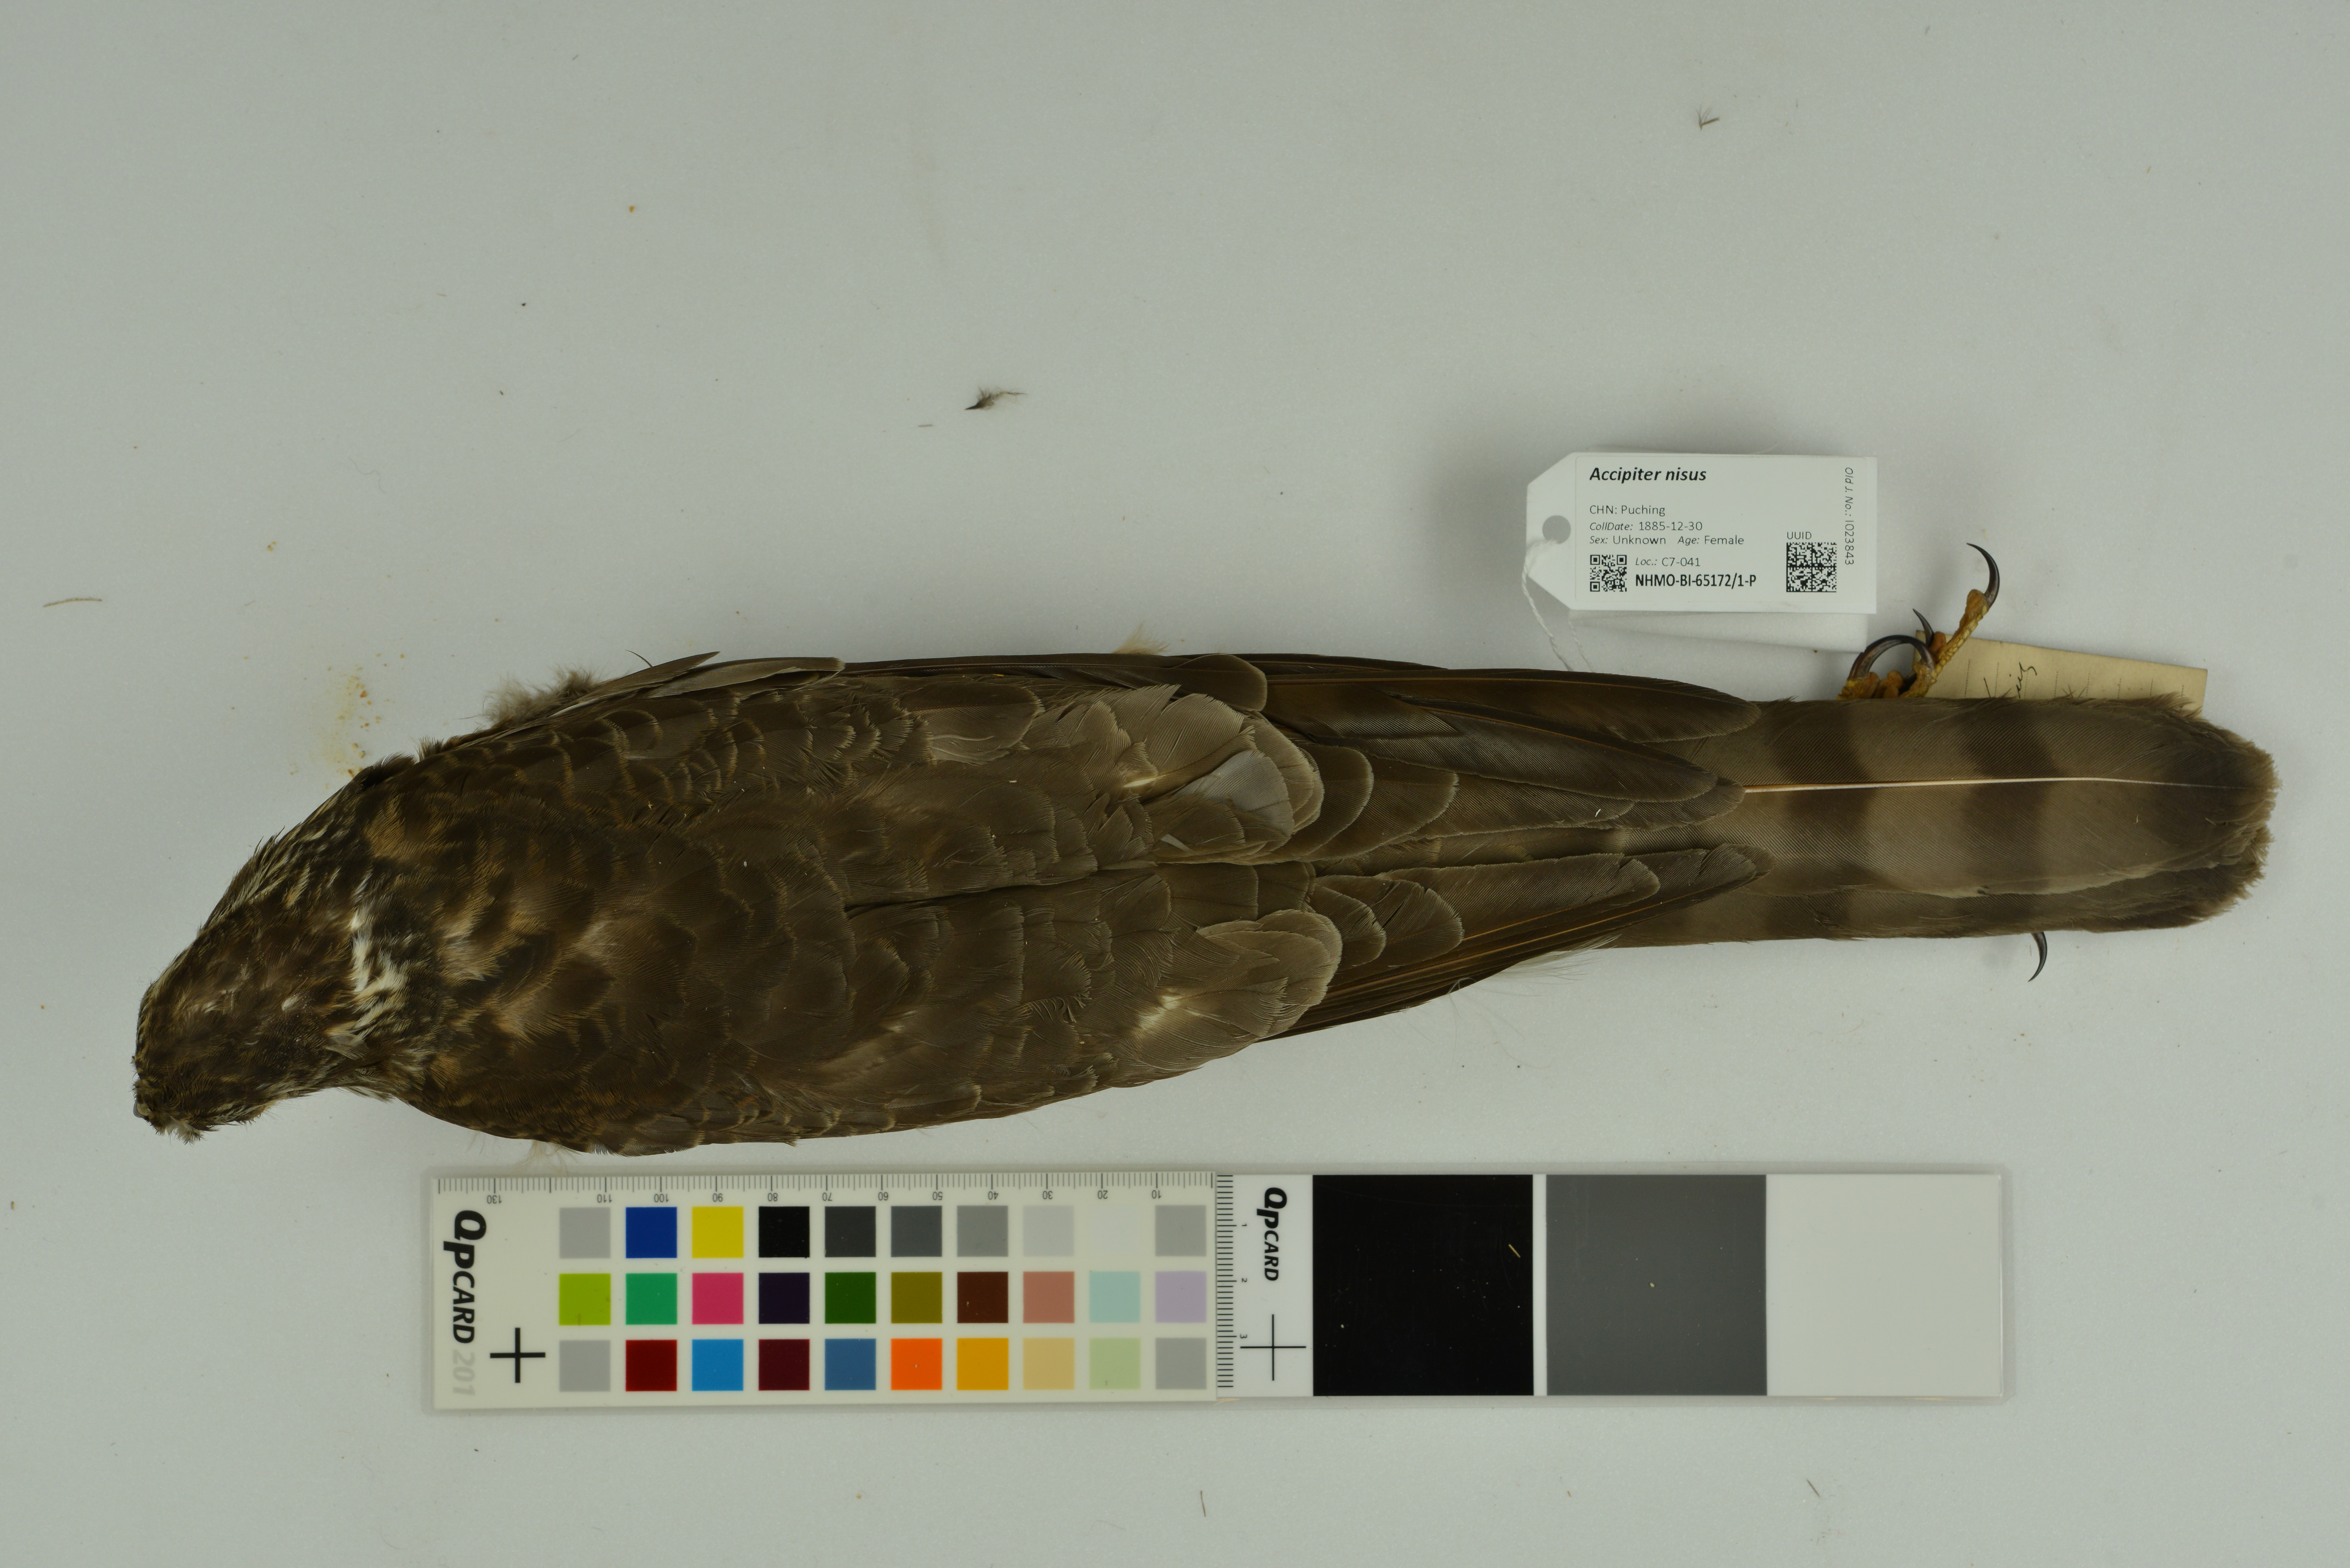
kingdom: Animalia
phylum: Chordata
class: Aves
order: Accipitriformes
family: Accipitridae
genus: Accipiter
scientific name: Accipiter nisus
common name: Eurasian sparrowhawk
